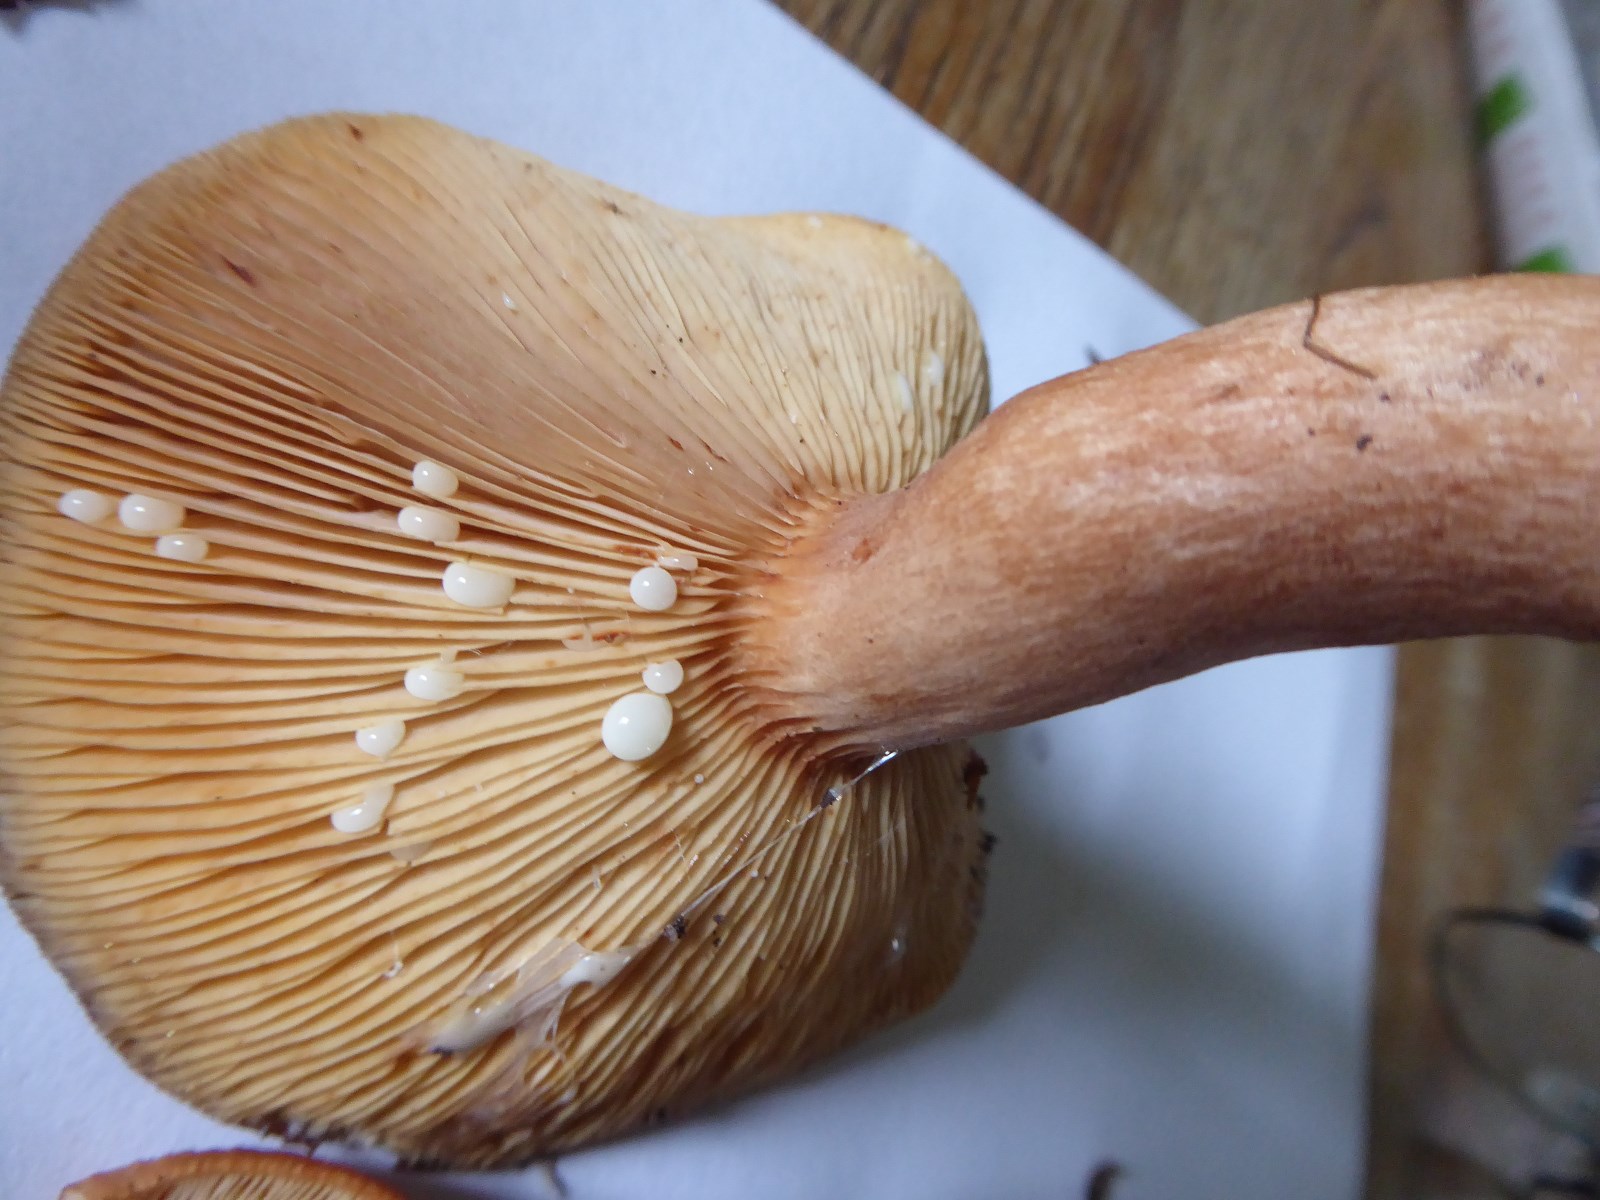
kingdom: Fungi
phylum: Basidiomycota
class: Agaricomycetes
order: Russulales
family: Russulaceae
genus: Lactarius
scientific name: Lactarius quietus
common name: ege-mælkehat
